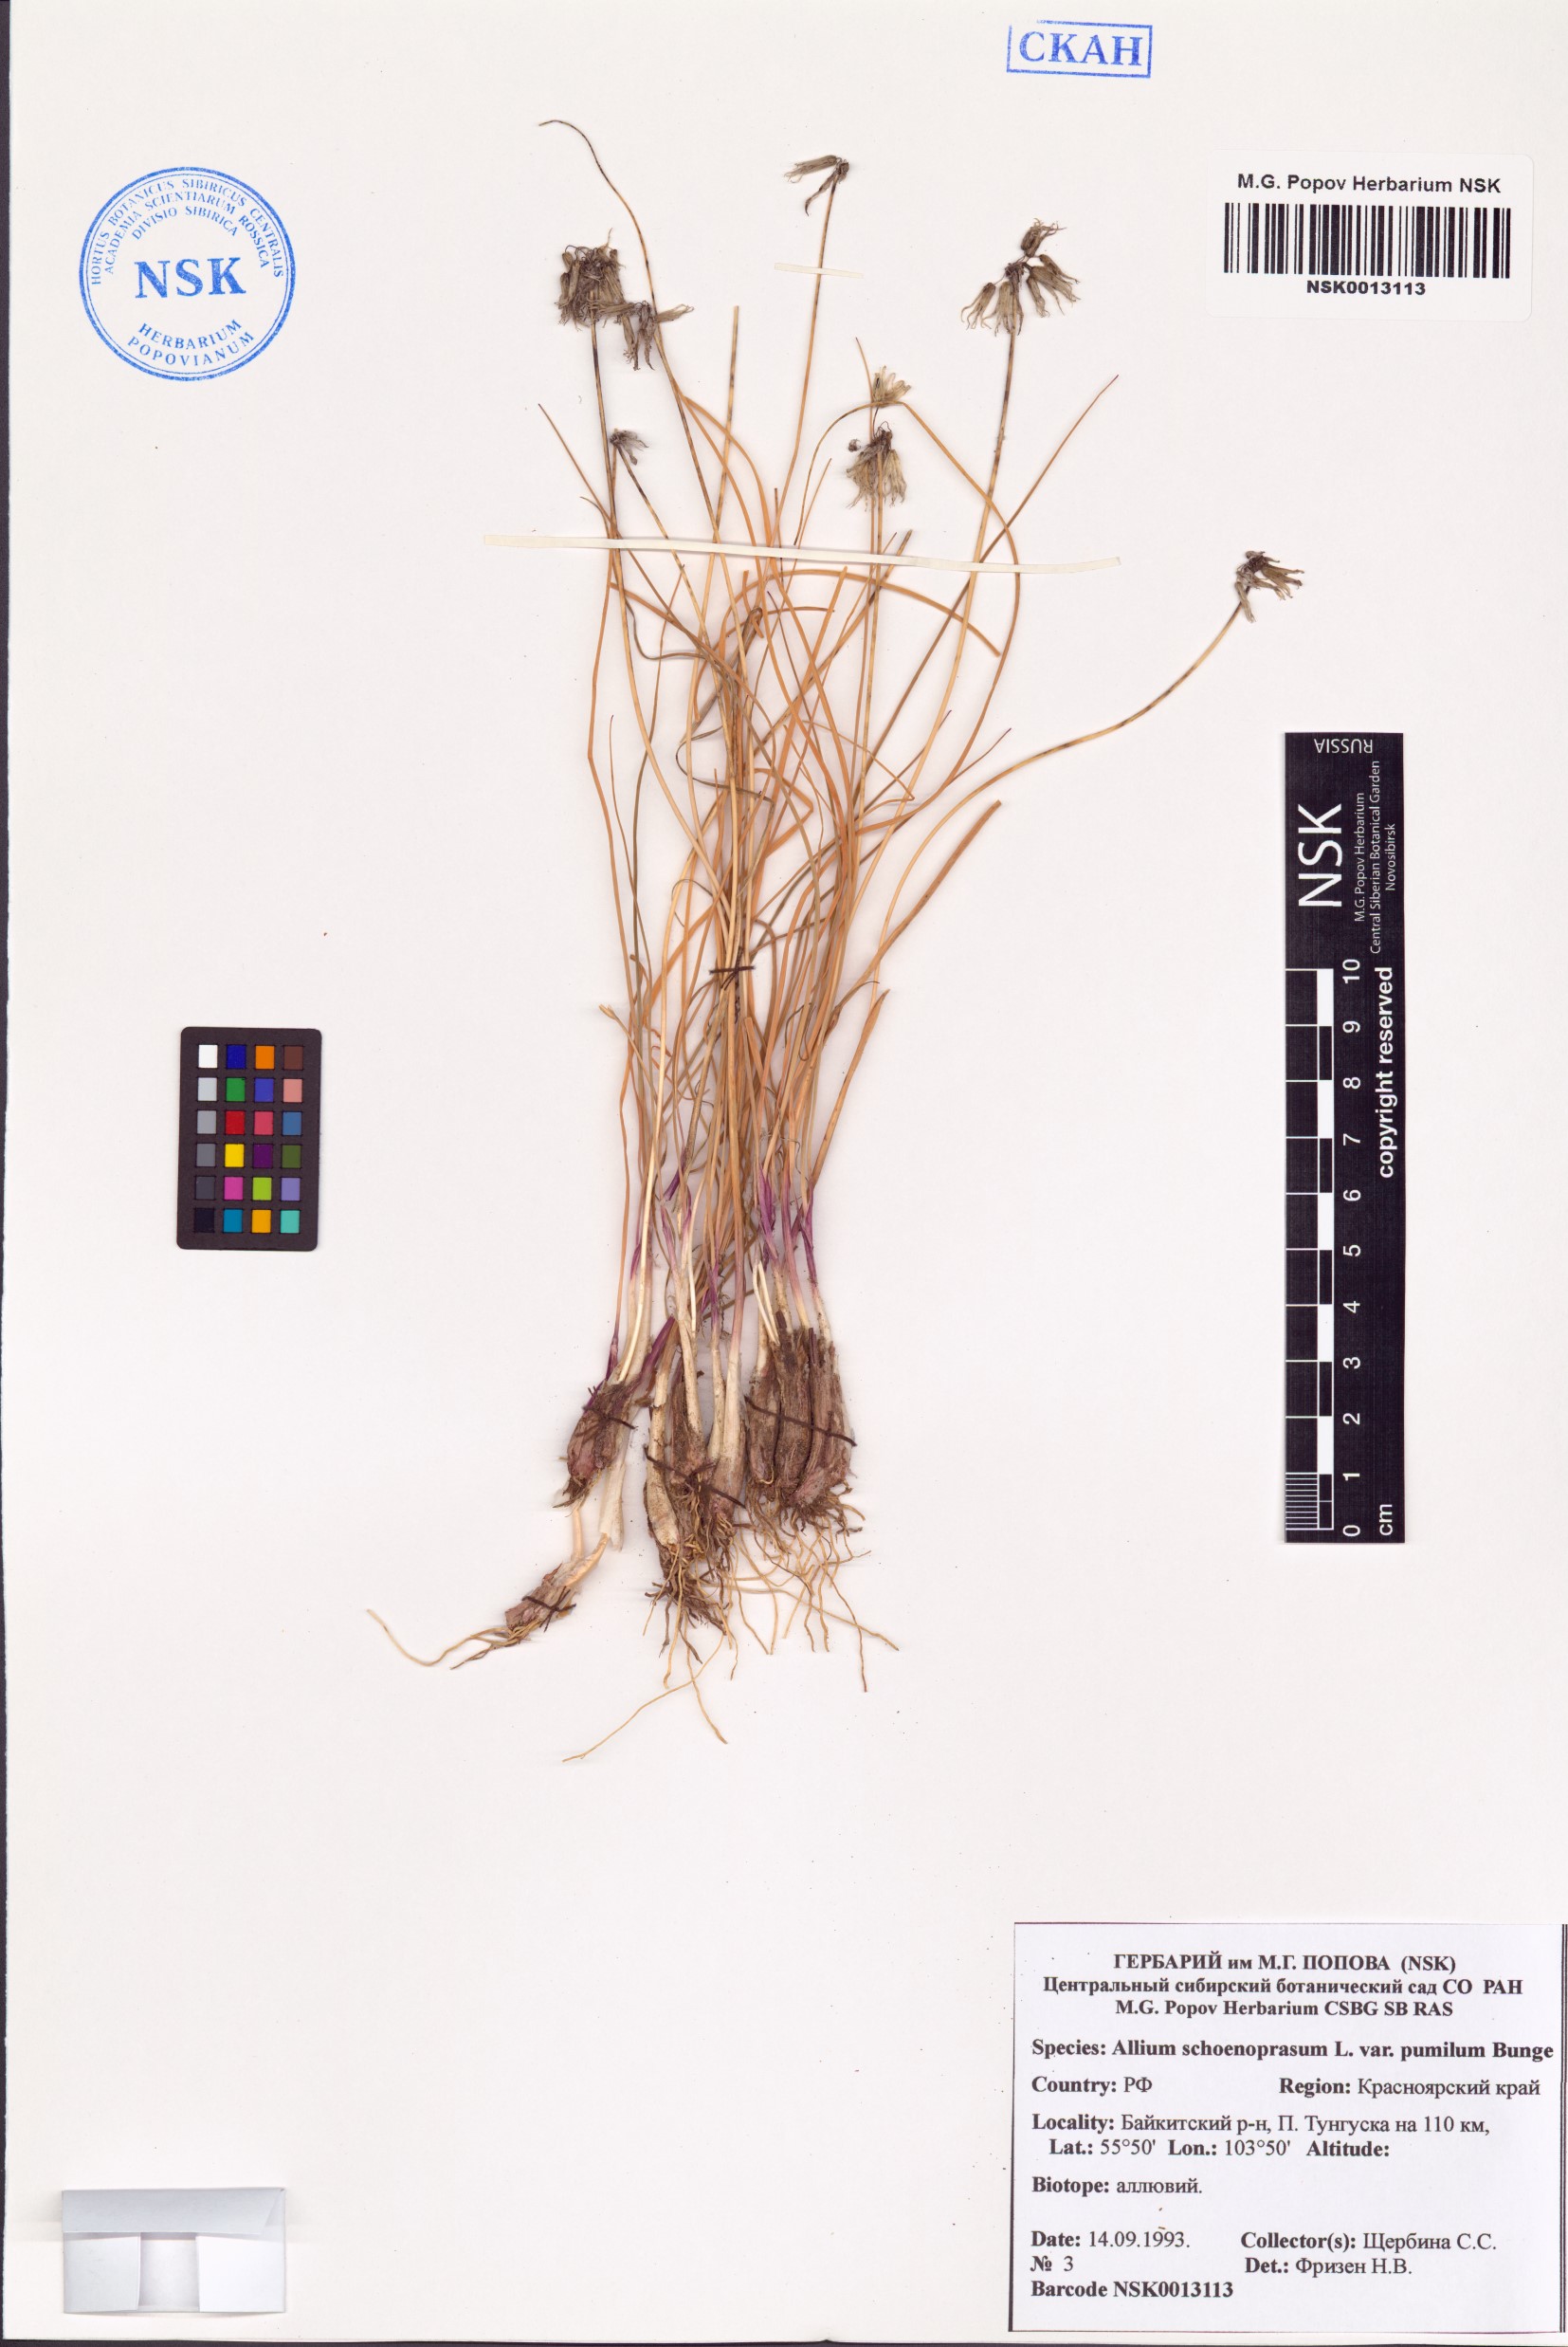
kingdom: Plantae
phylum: Tracheophyta
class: Liliopsida
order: Asparagales
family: Amaryllidaceae
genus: Allium
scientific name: Allium schoenoprasum
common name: Chives
